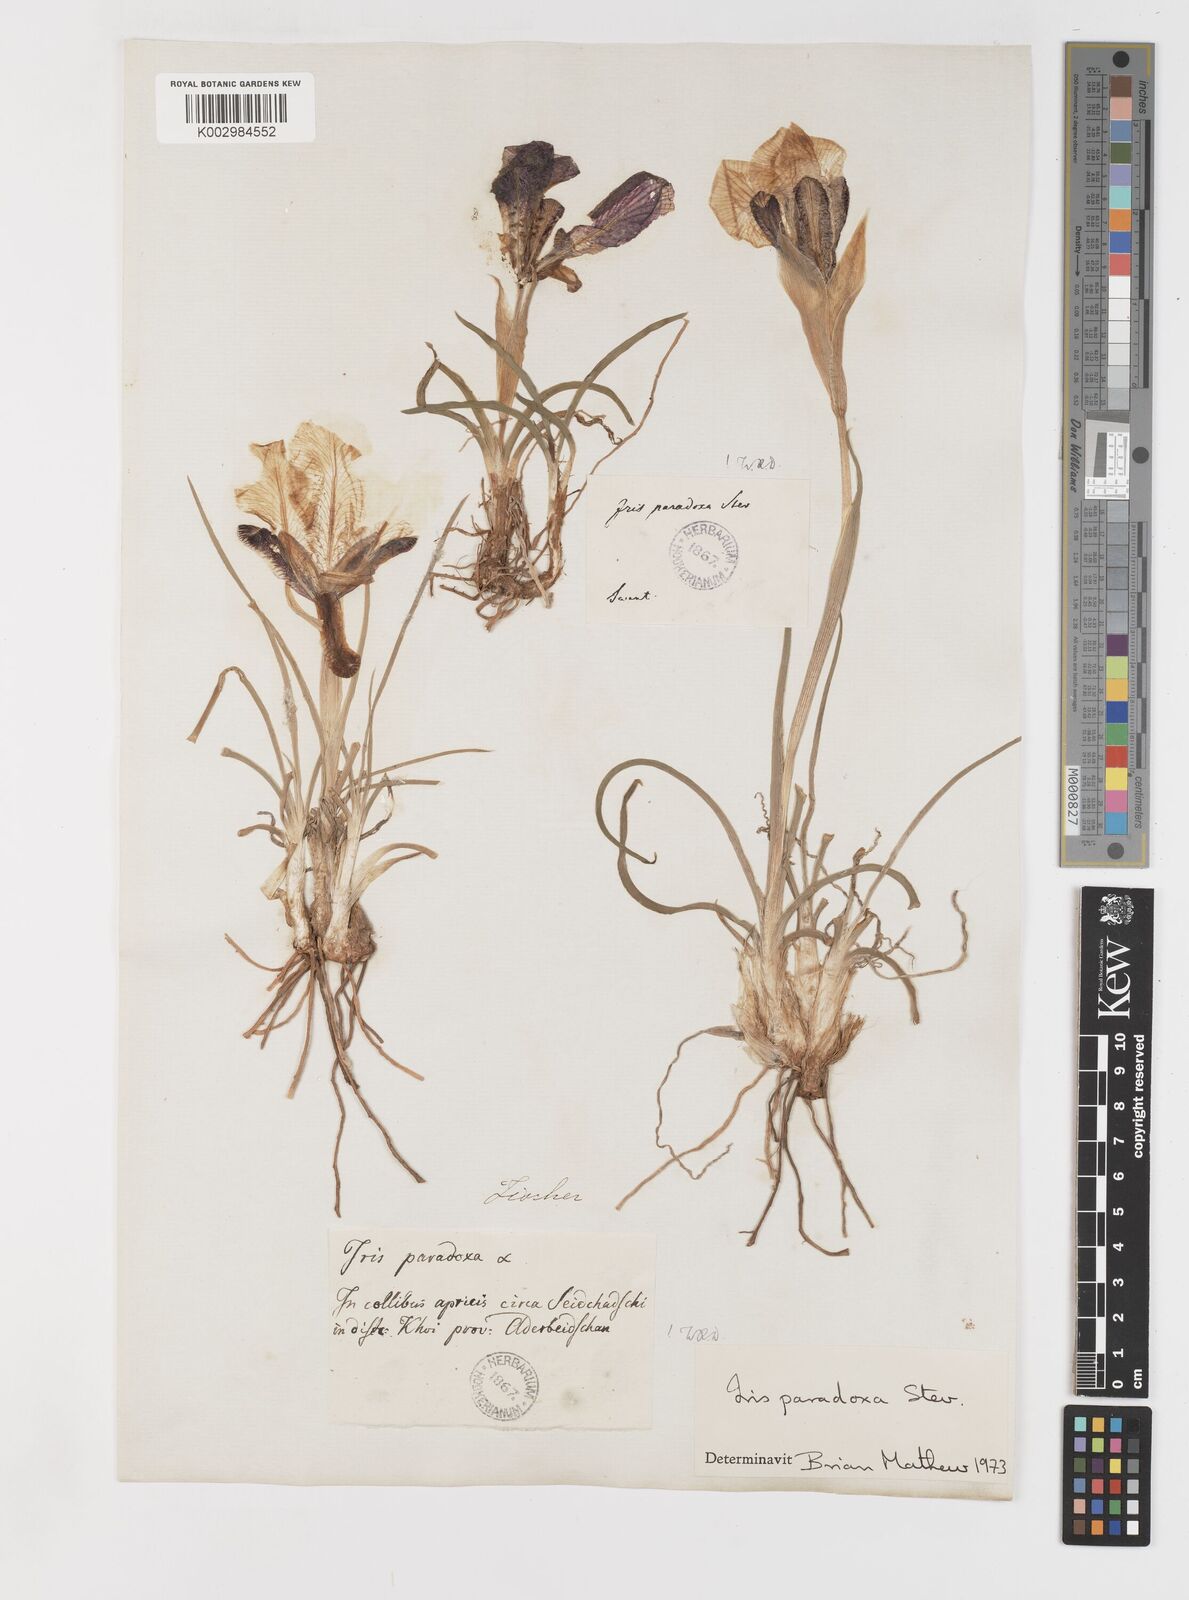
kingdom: Plantae
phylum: Tracheophyta
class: Liliopsida
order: Asparagales
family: Iridaceae
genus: Iris
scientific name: Iris paradoxa
